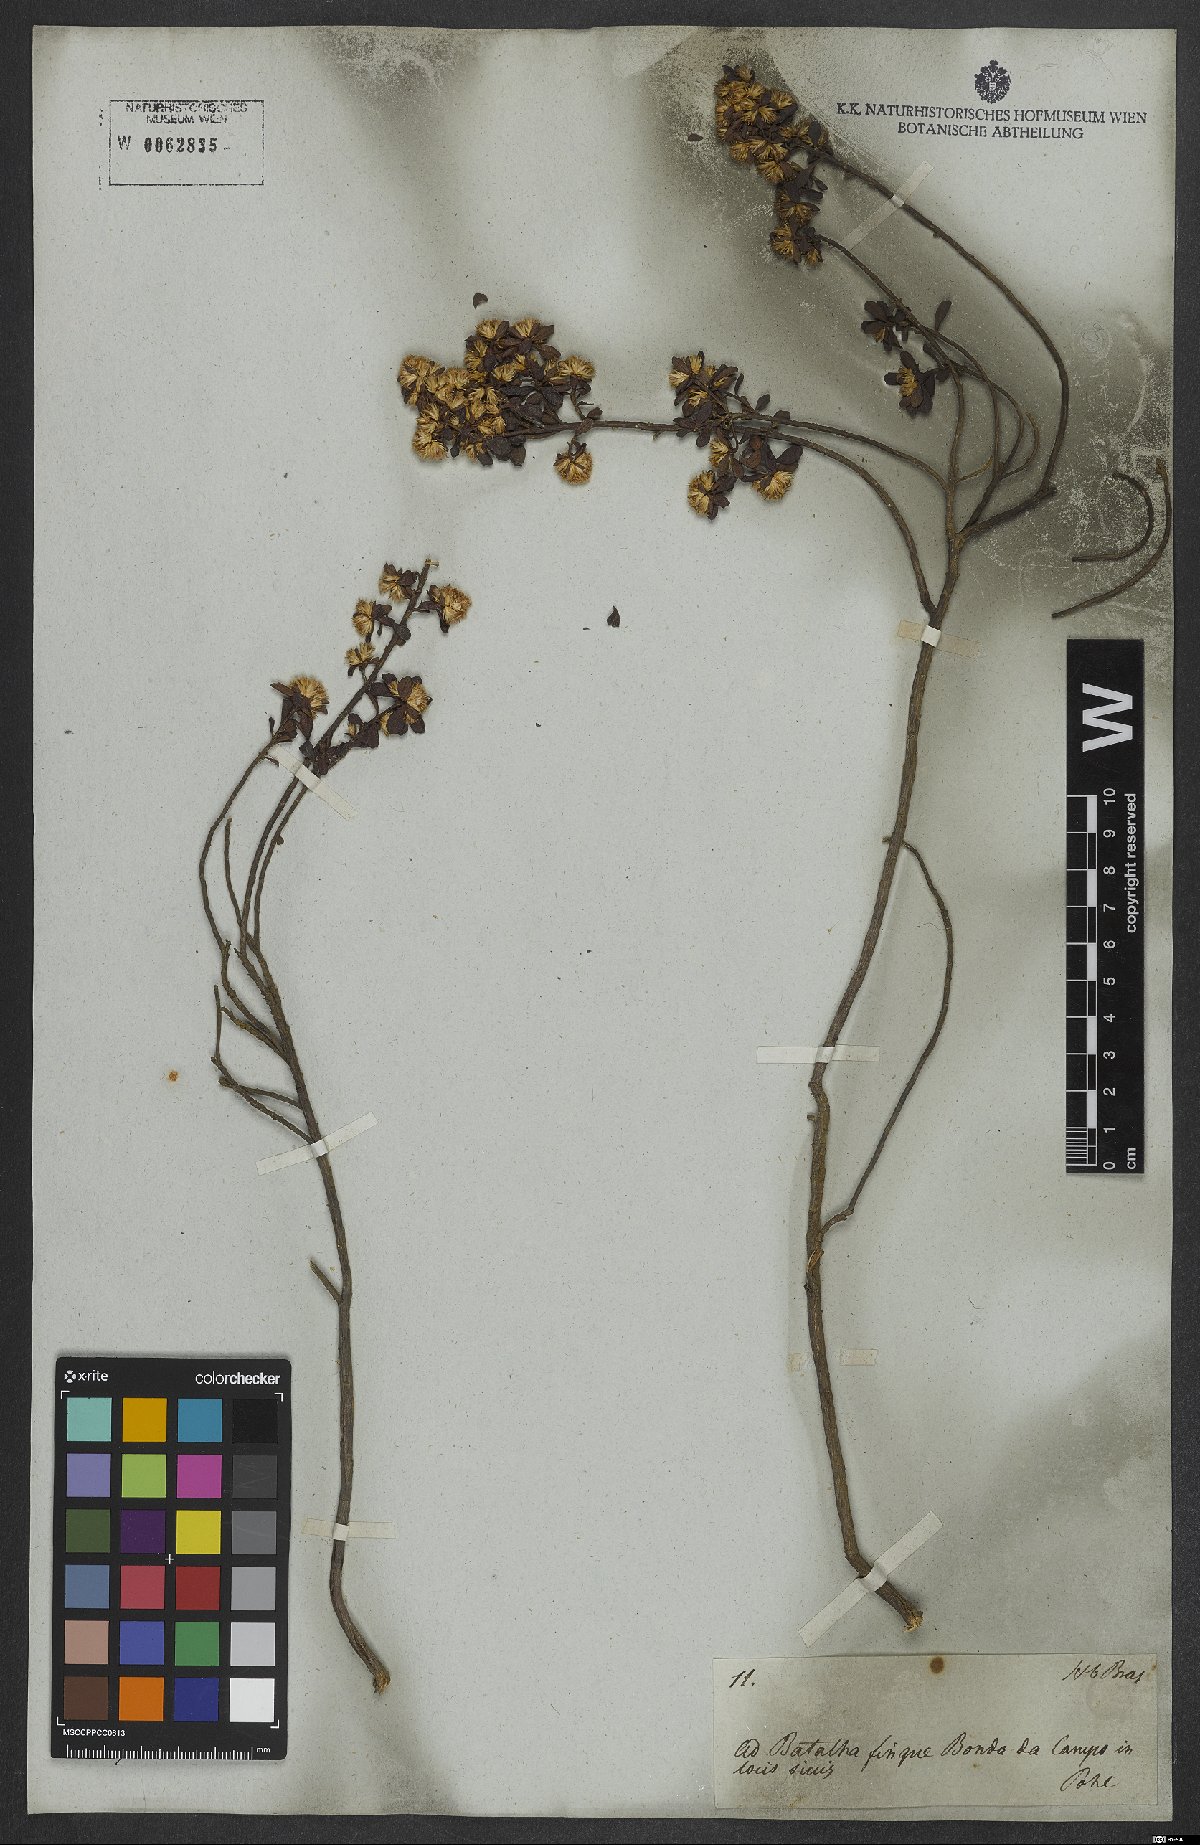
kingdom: Plantae
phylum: Tracheophyta
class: Magnoliopsida
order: Asterales
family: Asteraceae
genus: Baccharis
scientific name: Baccharis
